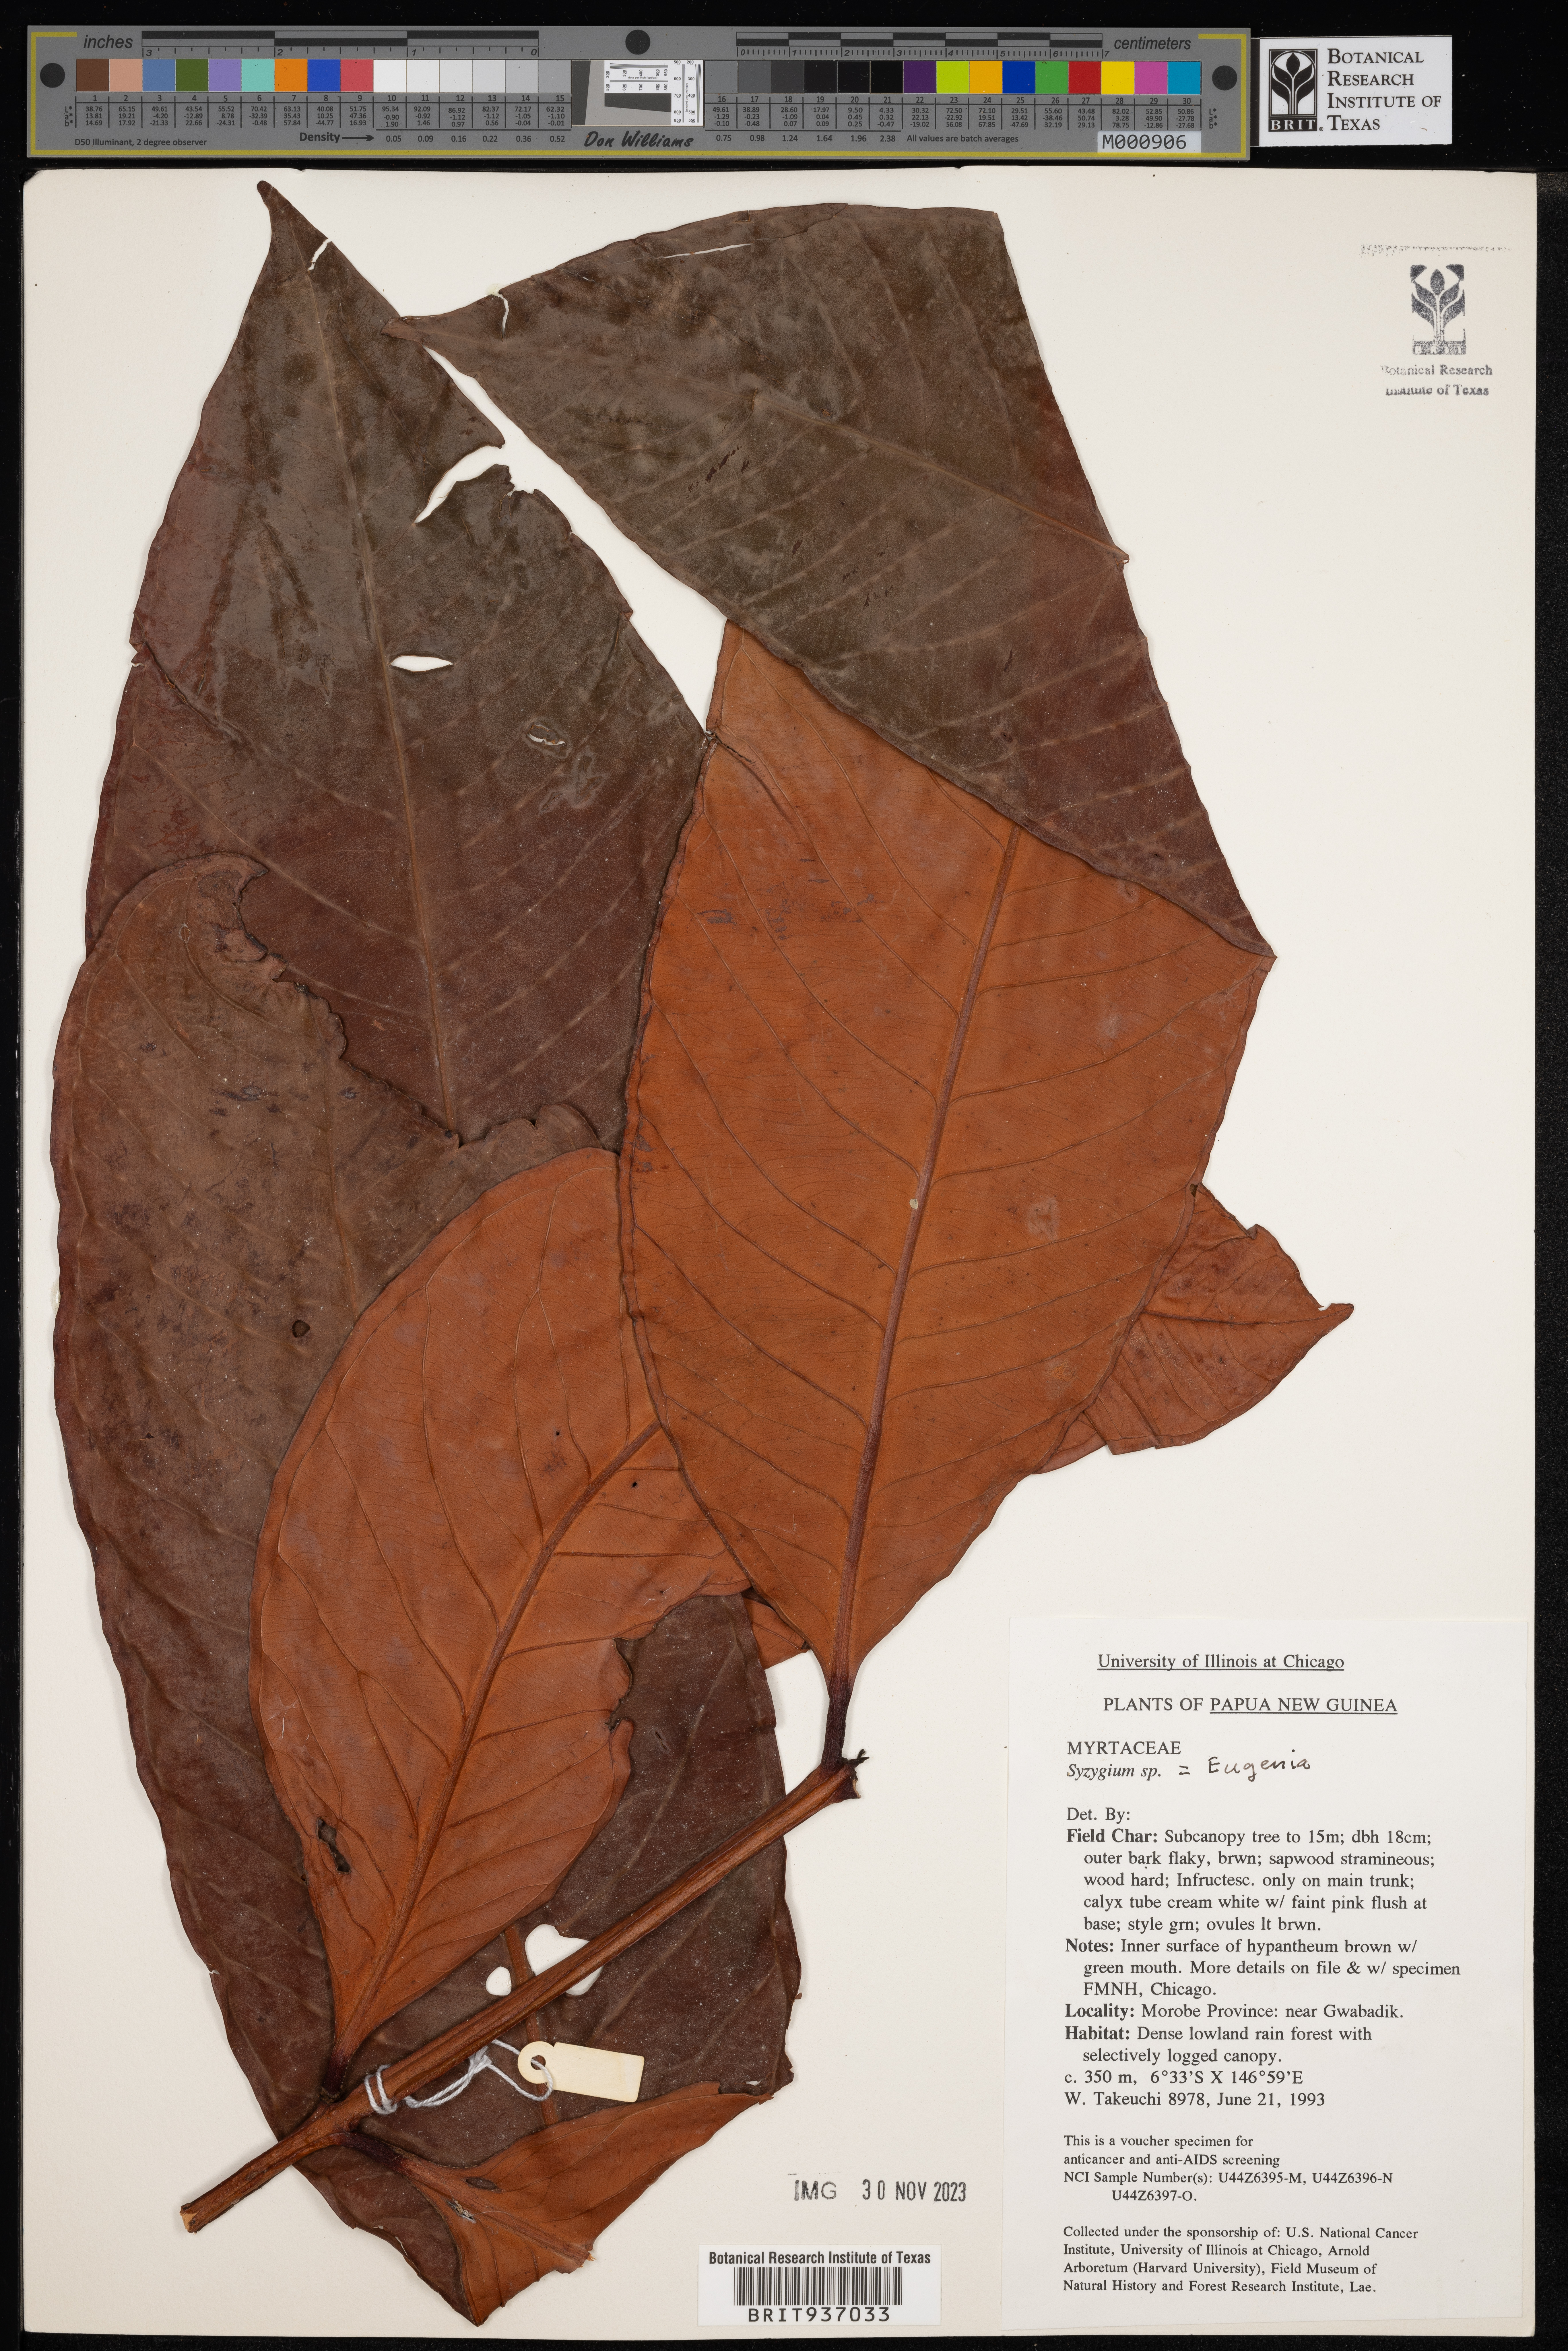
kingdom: Plantae
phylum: Tracheophyta
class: Magnoliopsida
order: Myrtales
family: Myrtaceae
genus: Eugenia
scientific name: Eugenia
